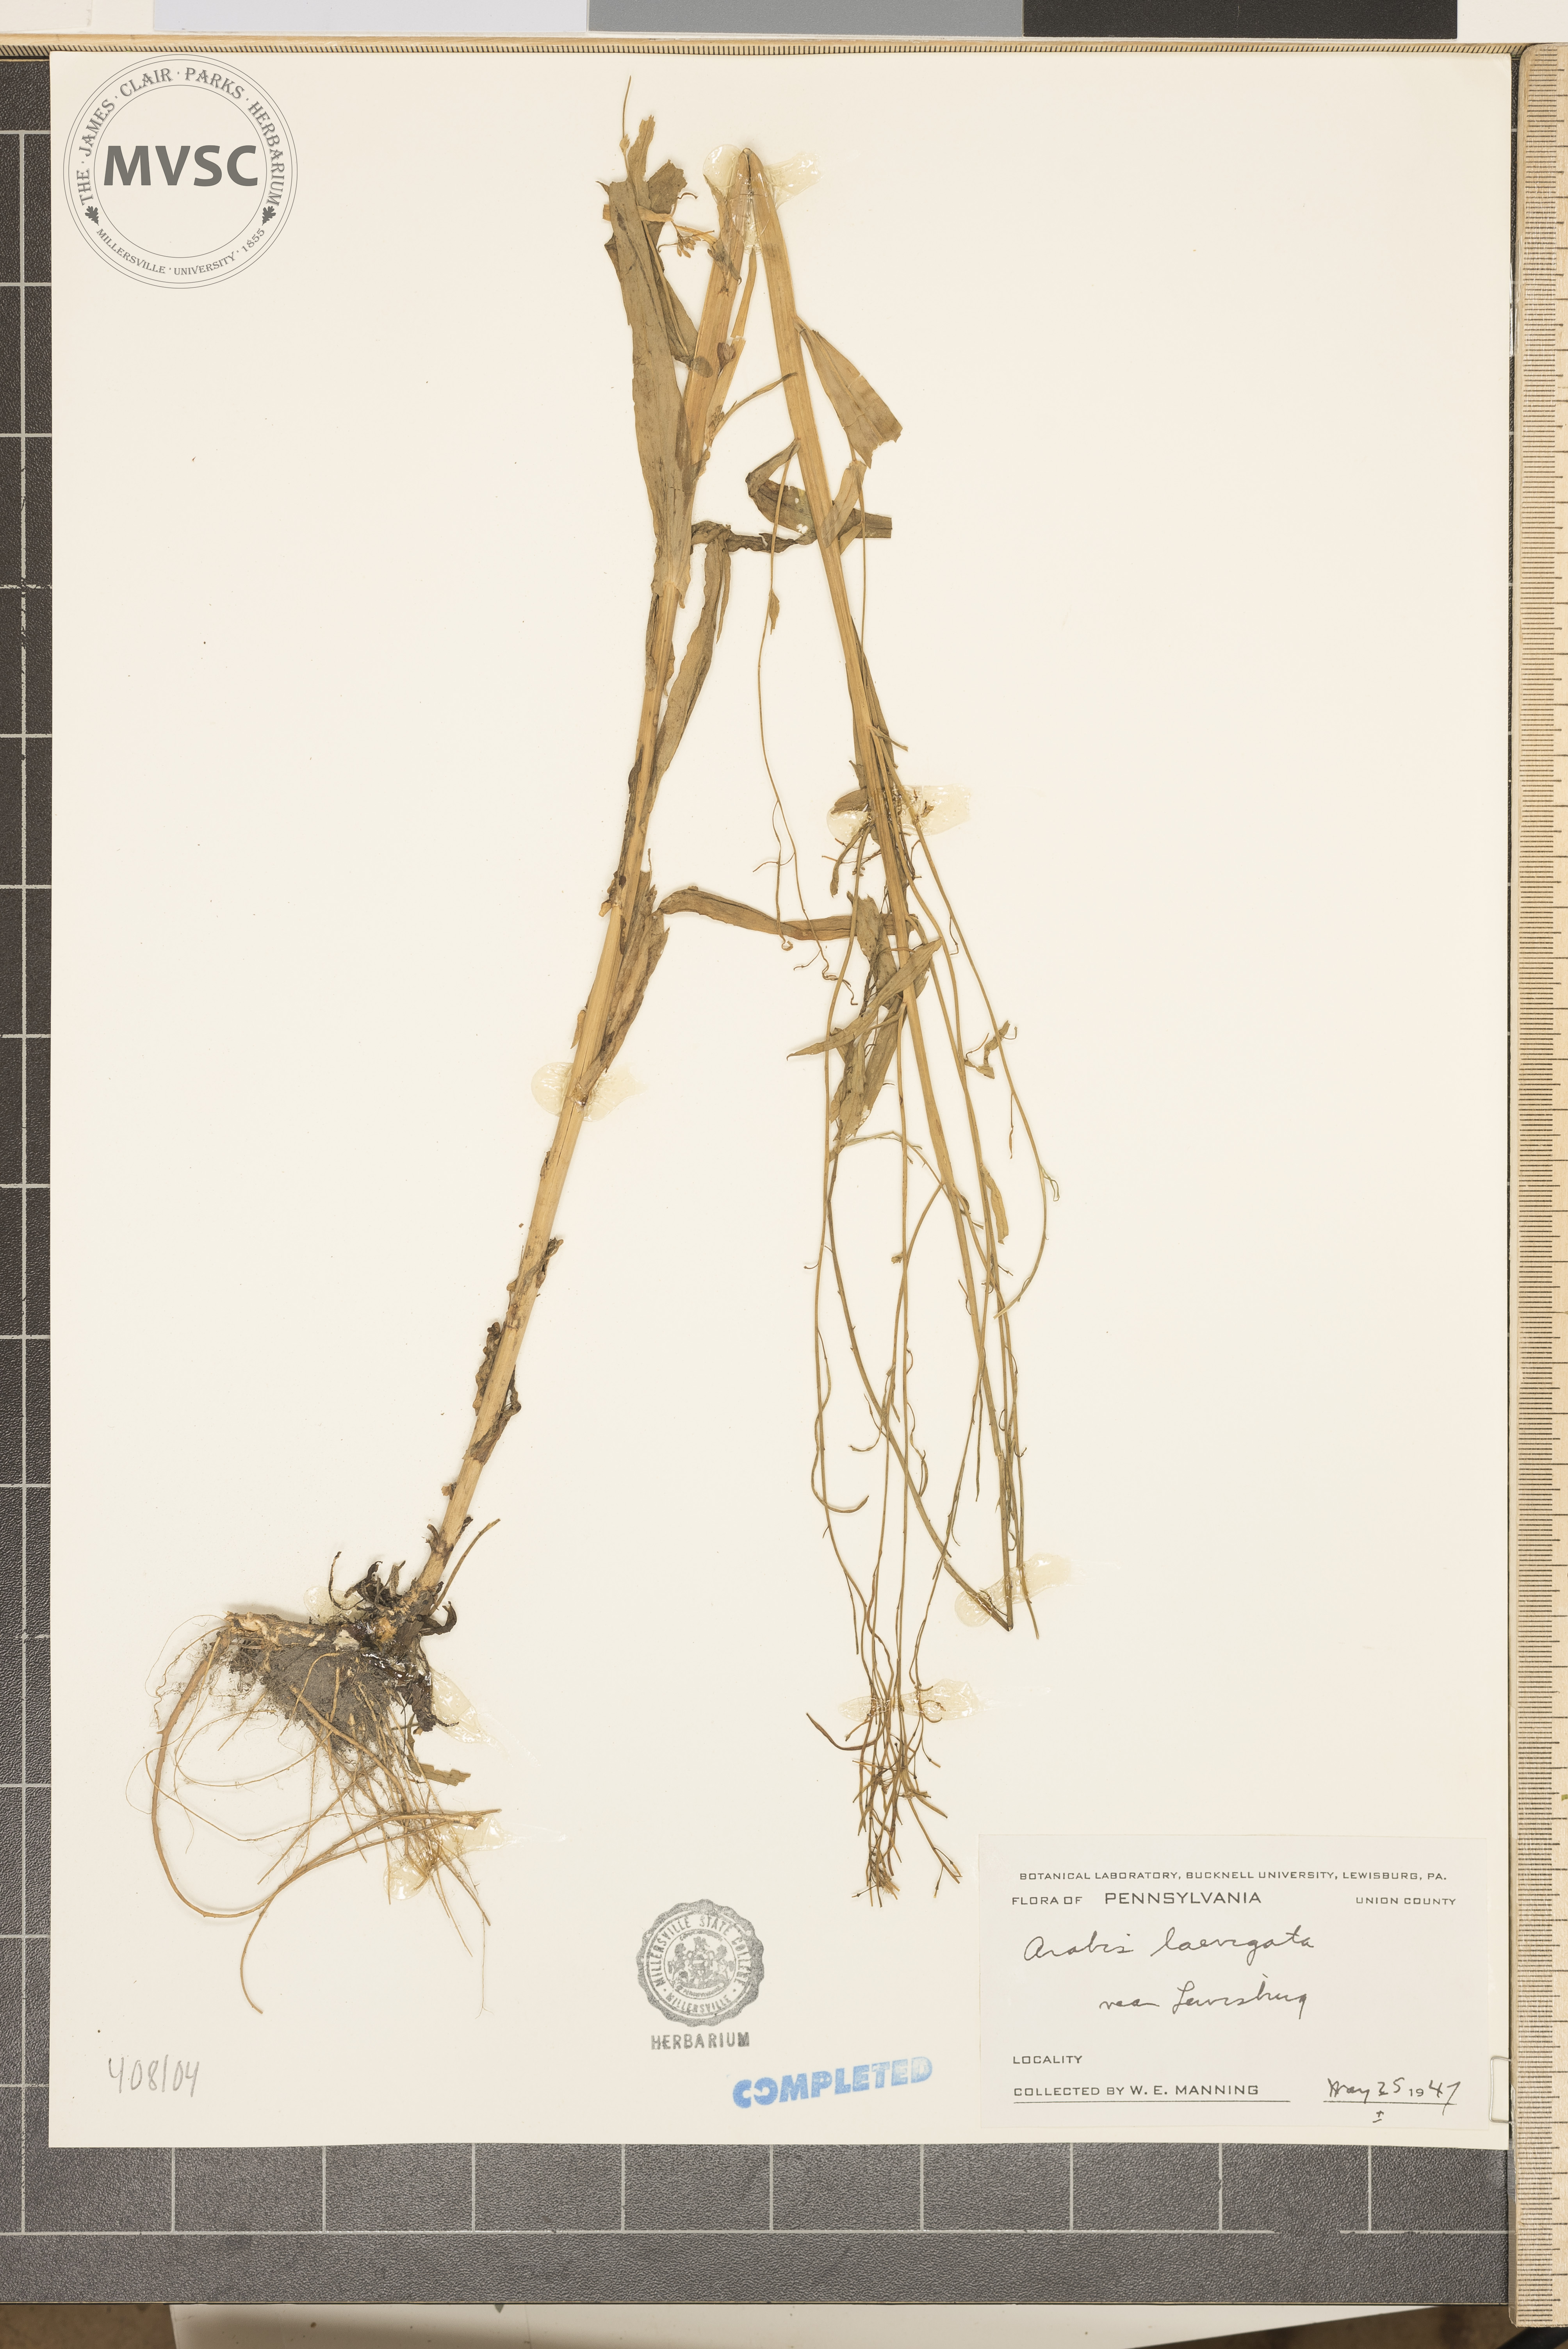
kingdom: Plantae
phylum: Tracheophyta
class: Magnoliopsida
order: Brassicales
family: Brassicaceae
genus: Arabis
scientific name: Arabis laevigata
